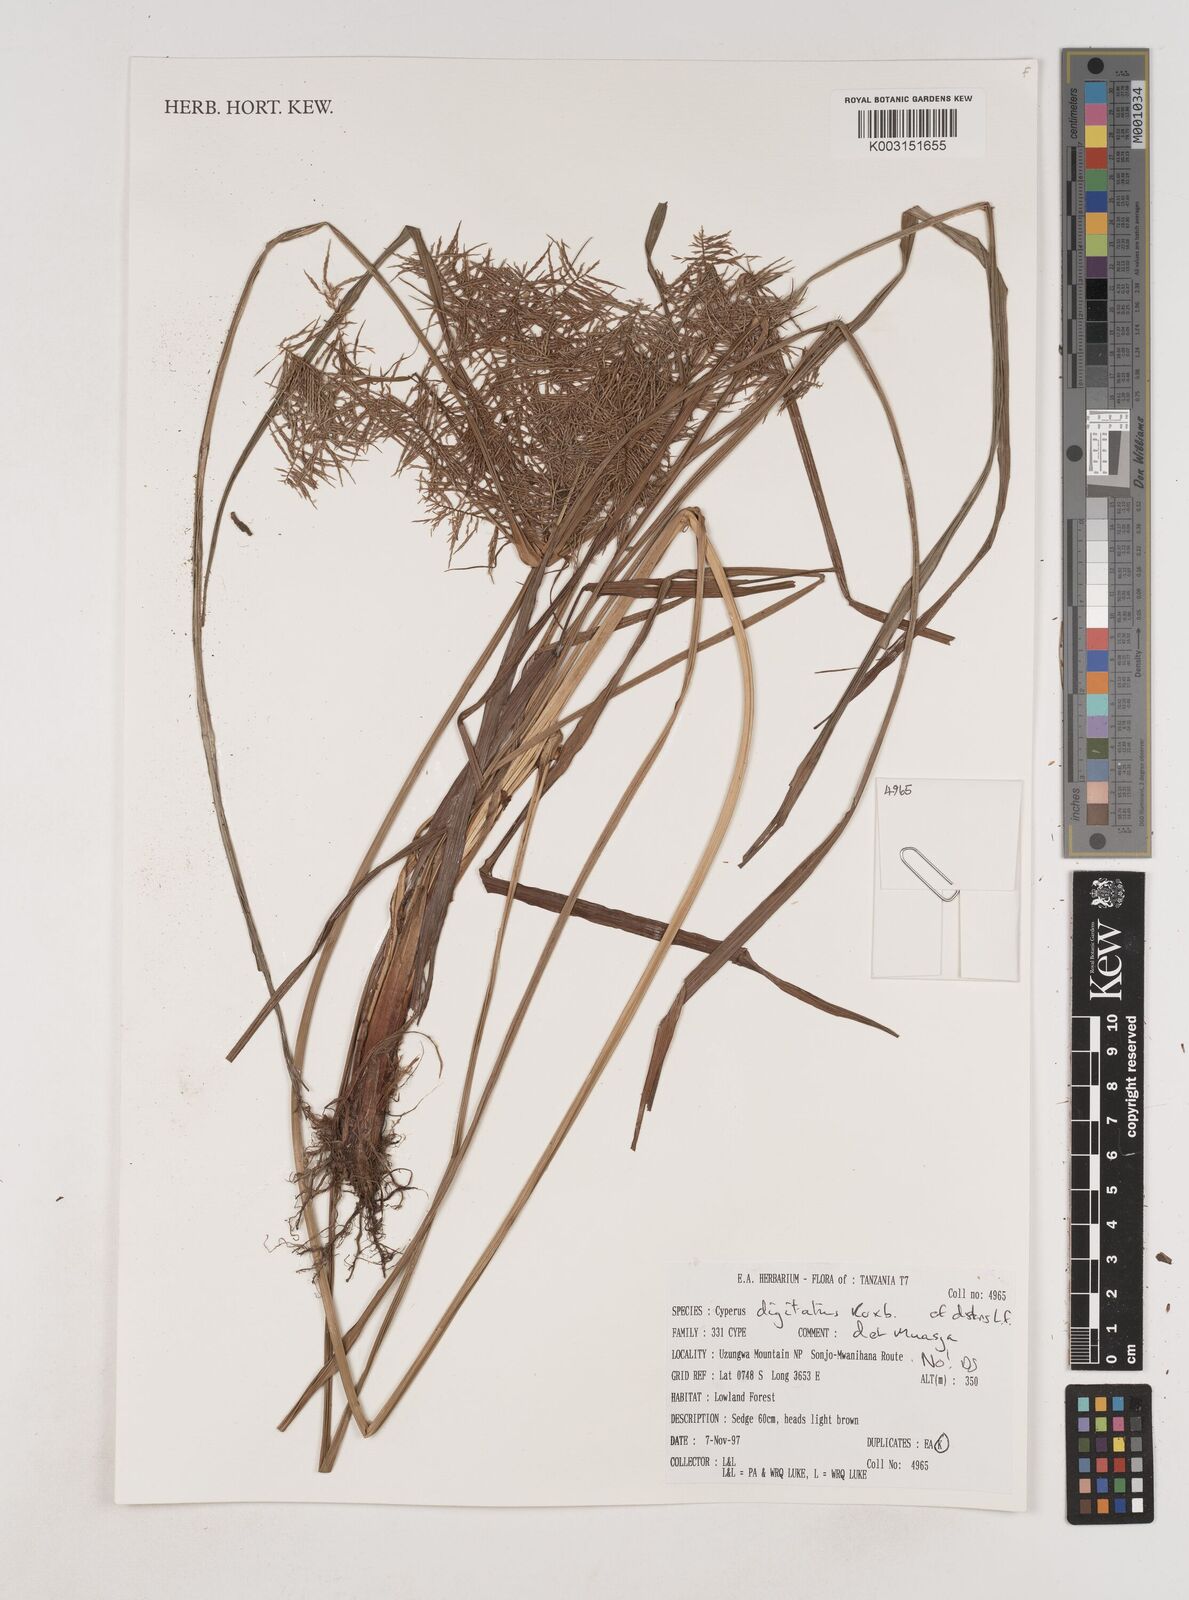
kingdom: Plantae
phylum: Tracheophyta
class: Liliopsida
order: Poales
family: Cyperaceae
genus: Cyperus
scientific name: Cyperus digitatus
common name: Finger flatsedge
